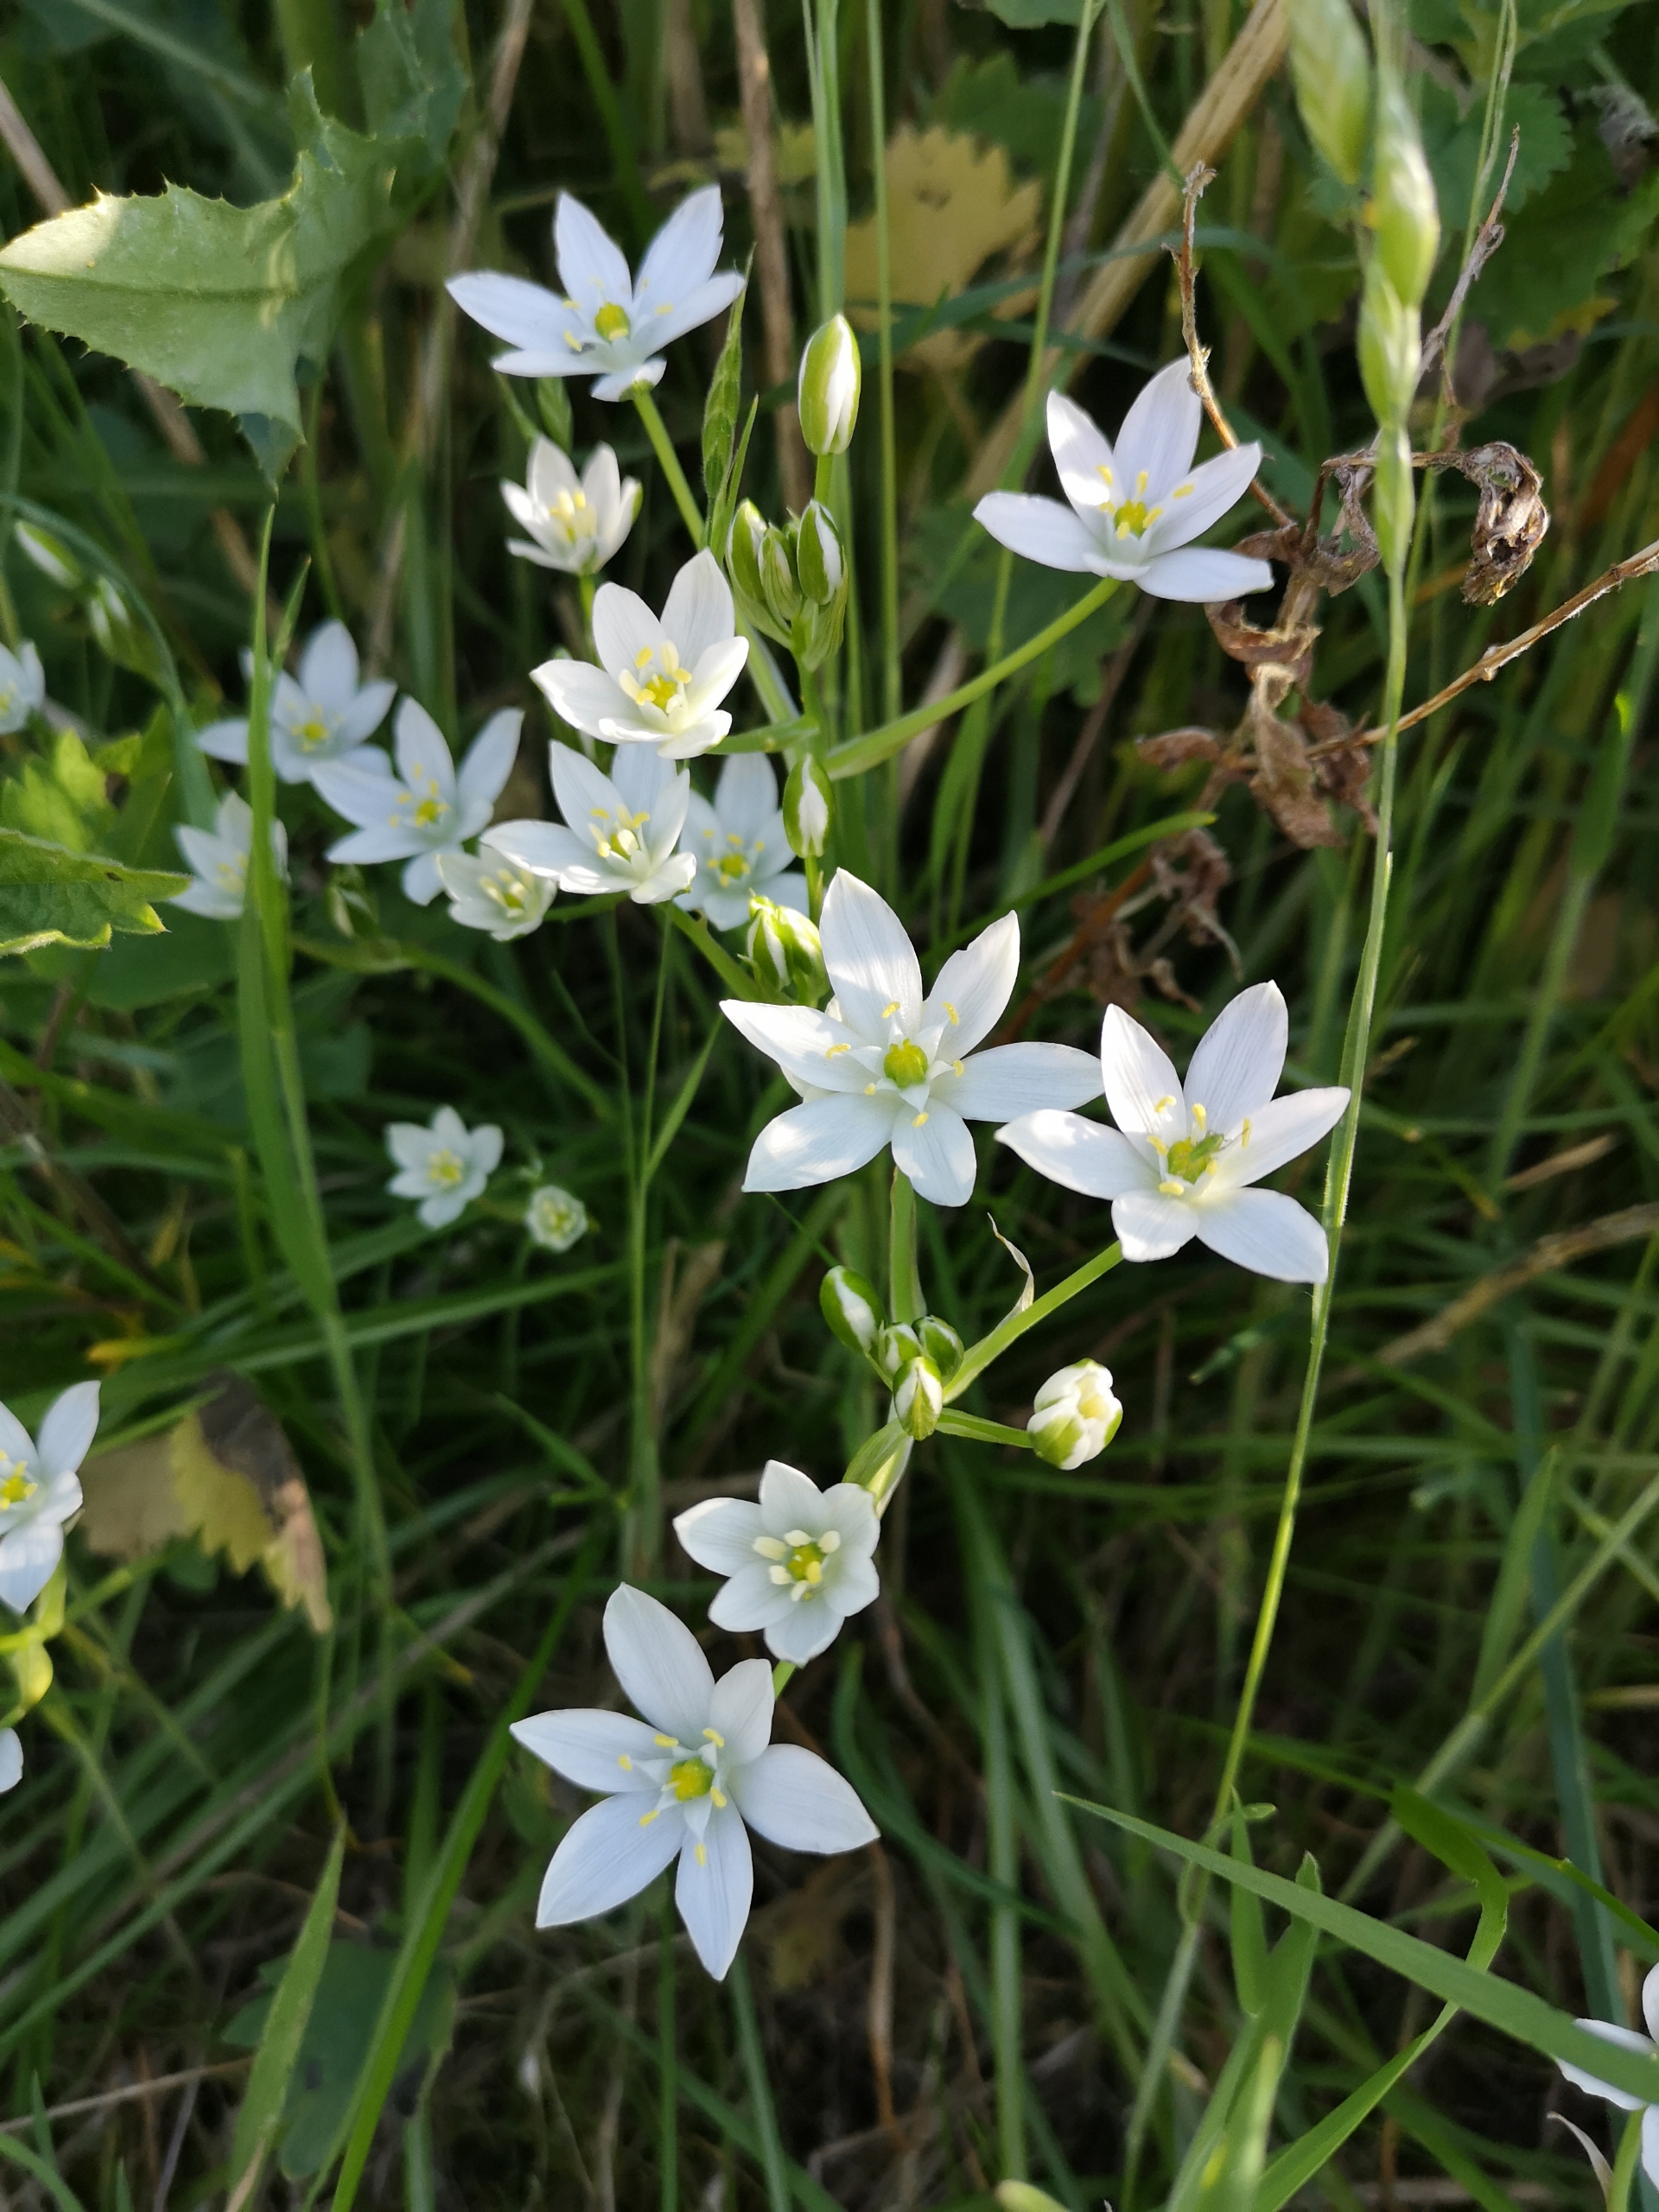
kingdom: Plantae
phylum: Tracheophyta
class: Liliopsida
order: Asparagales
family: Asparagaceae
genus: Ornithogalum
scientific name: Ornithogalum umbellatum
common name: Kost-fuglemælk
